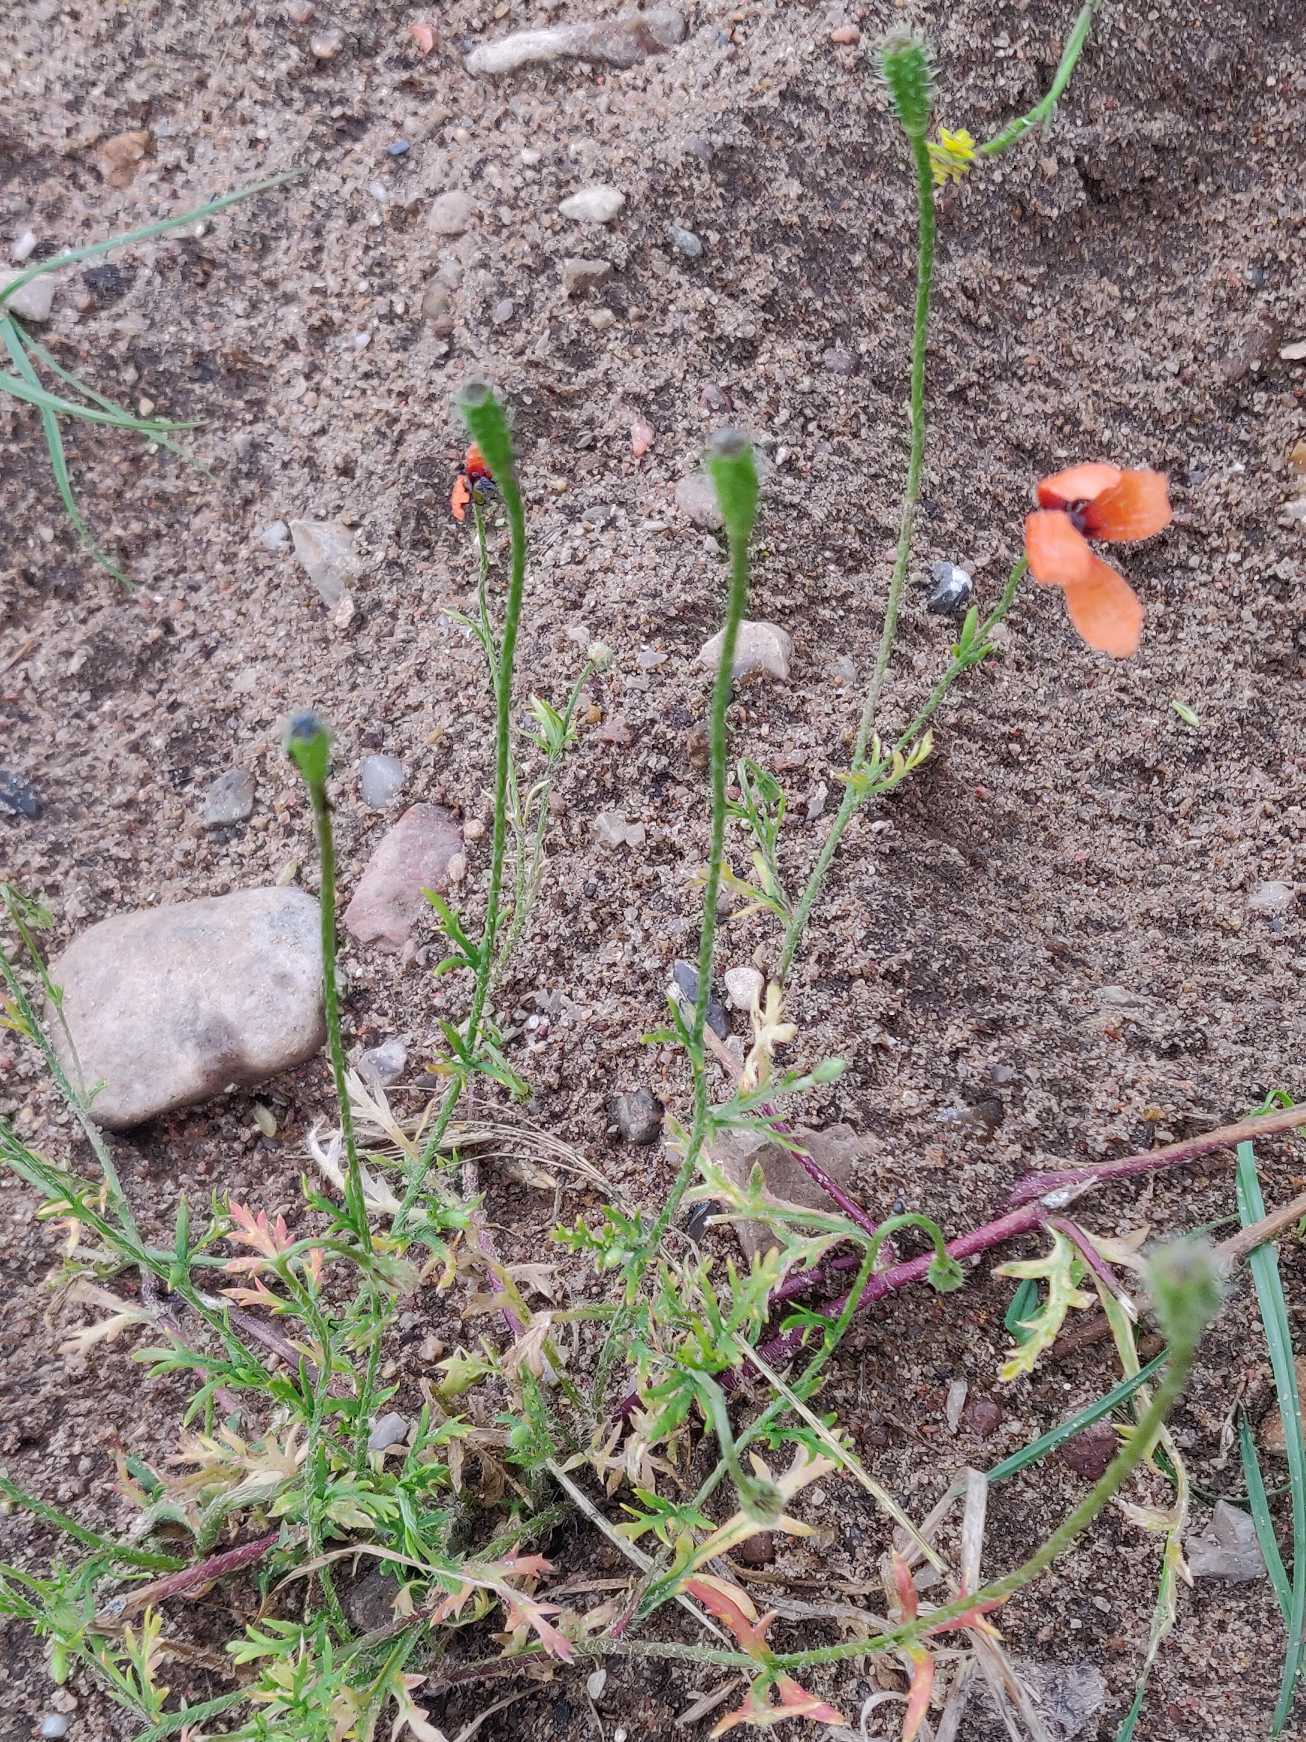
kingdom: Plantae
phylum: Tracheophyta
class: Magnoliopsida
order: Ranunculales
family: Papaveraceae
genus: Roemeria
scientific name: Roemeria argemone
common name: Kølle-valmue
